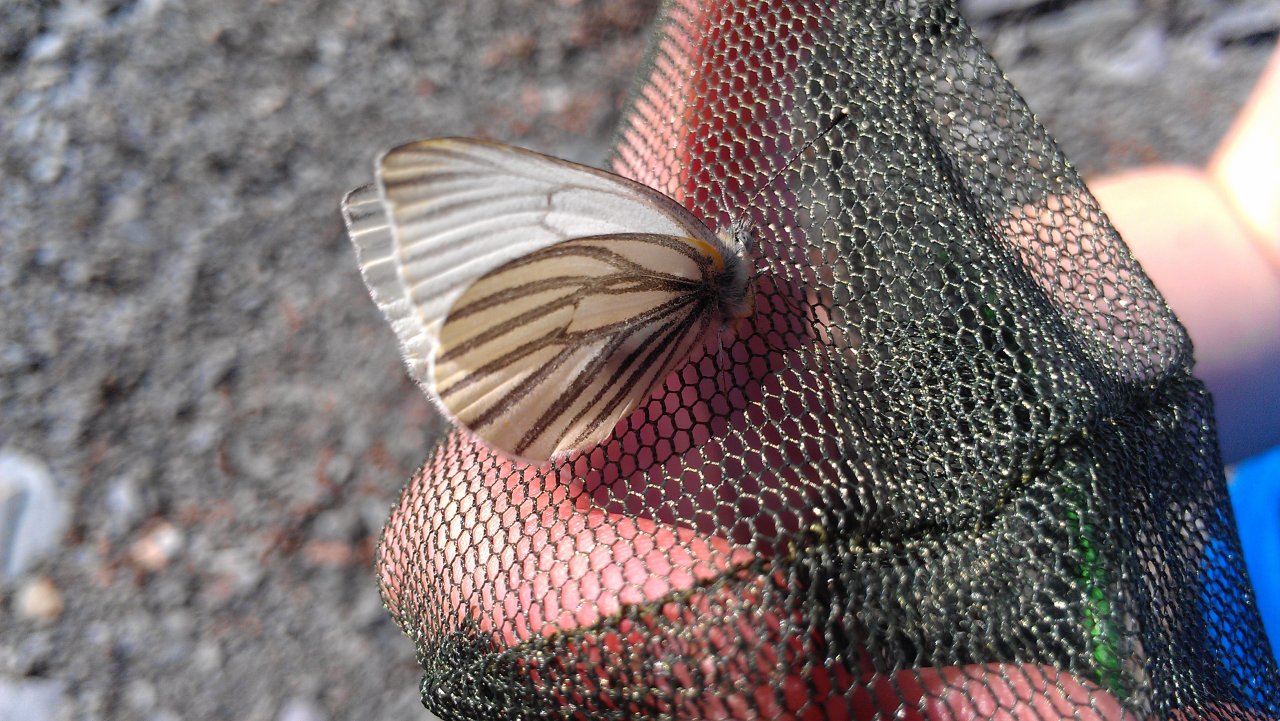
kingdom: Animalia
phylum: Arthropoda
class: Insecta
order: Lepidoptera
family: Pieridae
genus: Pieris
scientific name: Pieris oleracea
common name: Mustard White
